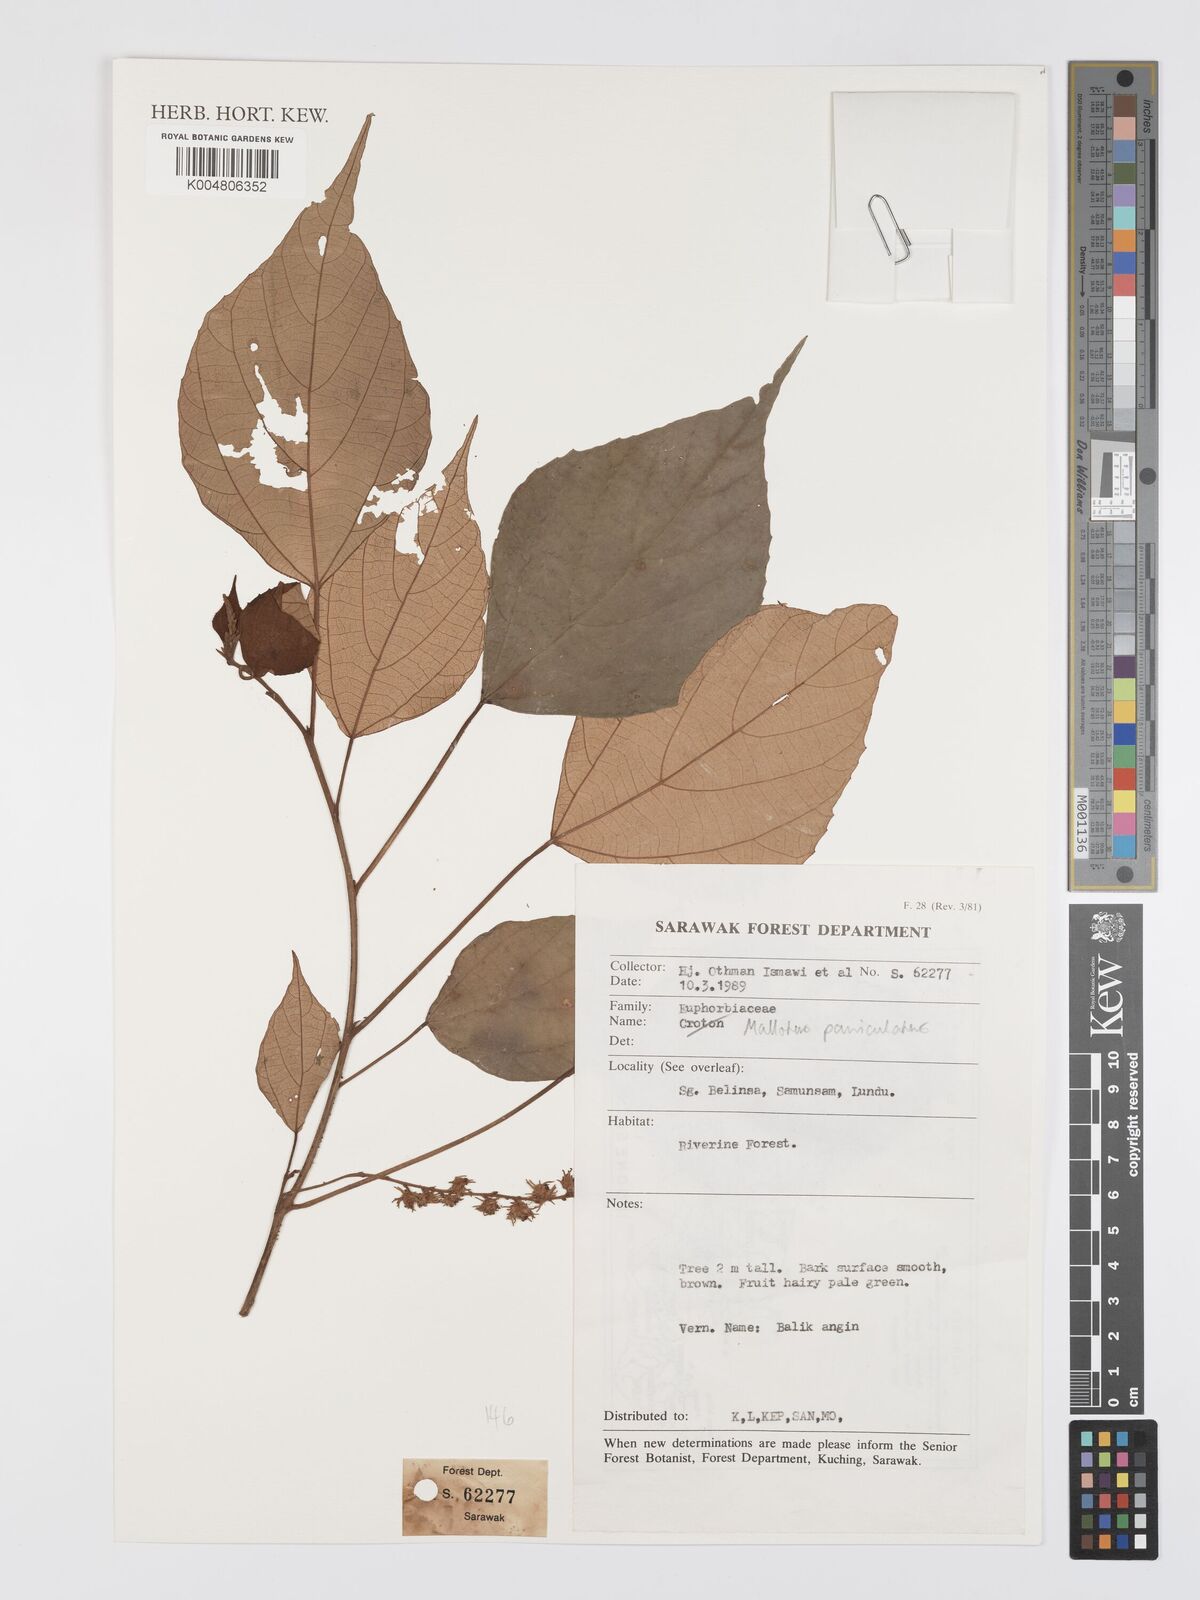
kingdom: Plantae
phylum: Tracheophyta
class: Magnoliopsida
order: Malpighiales
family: Euphorbiaceae
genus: Mallotus
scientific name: Mallotus paniculatus
